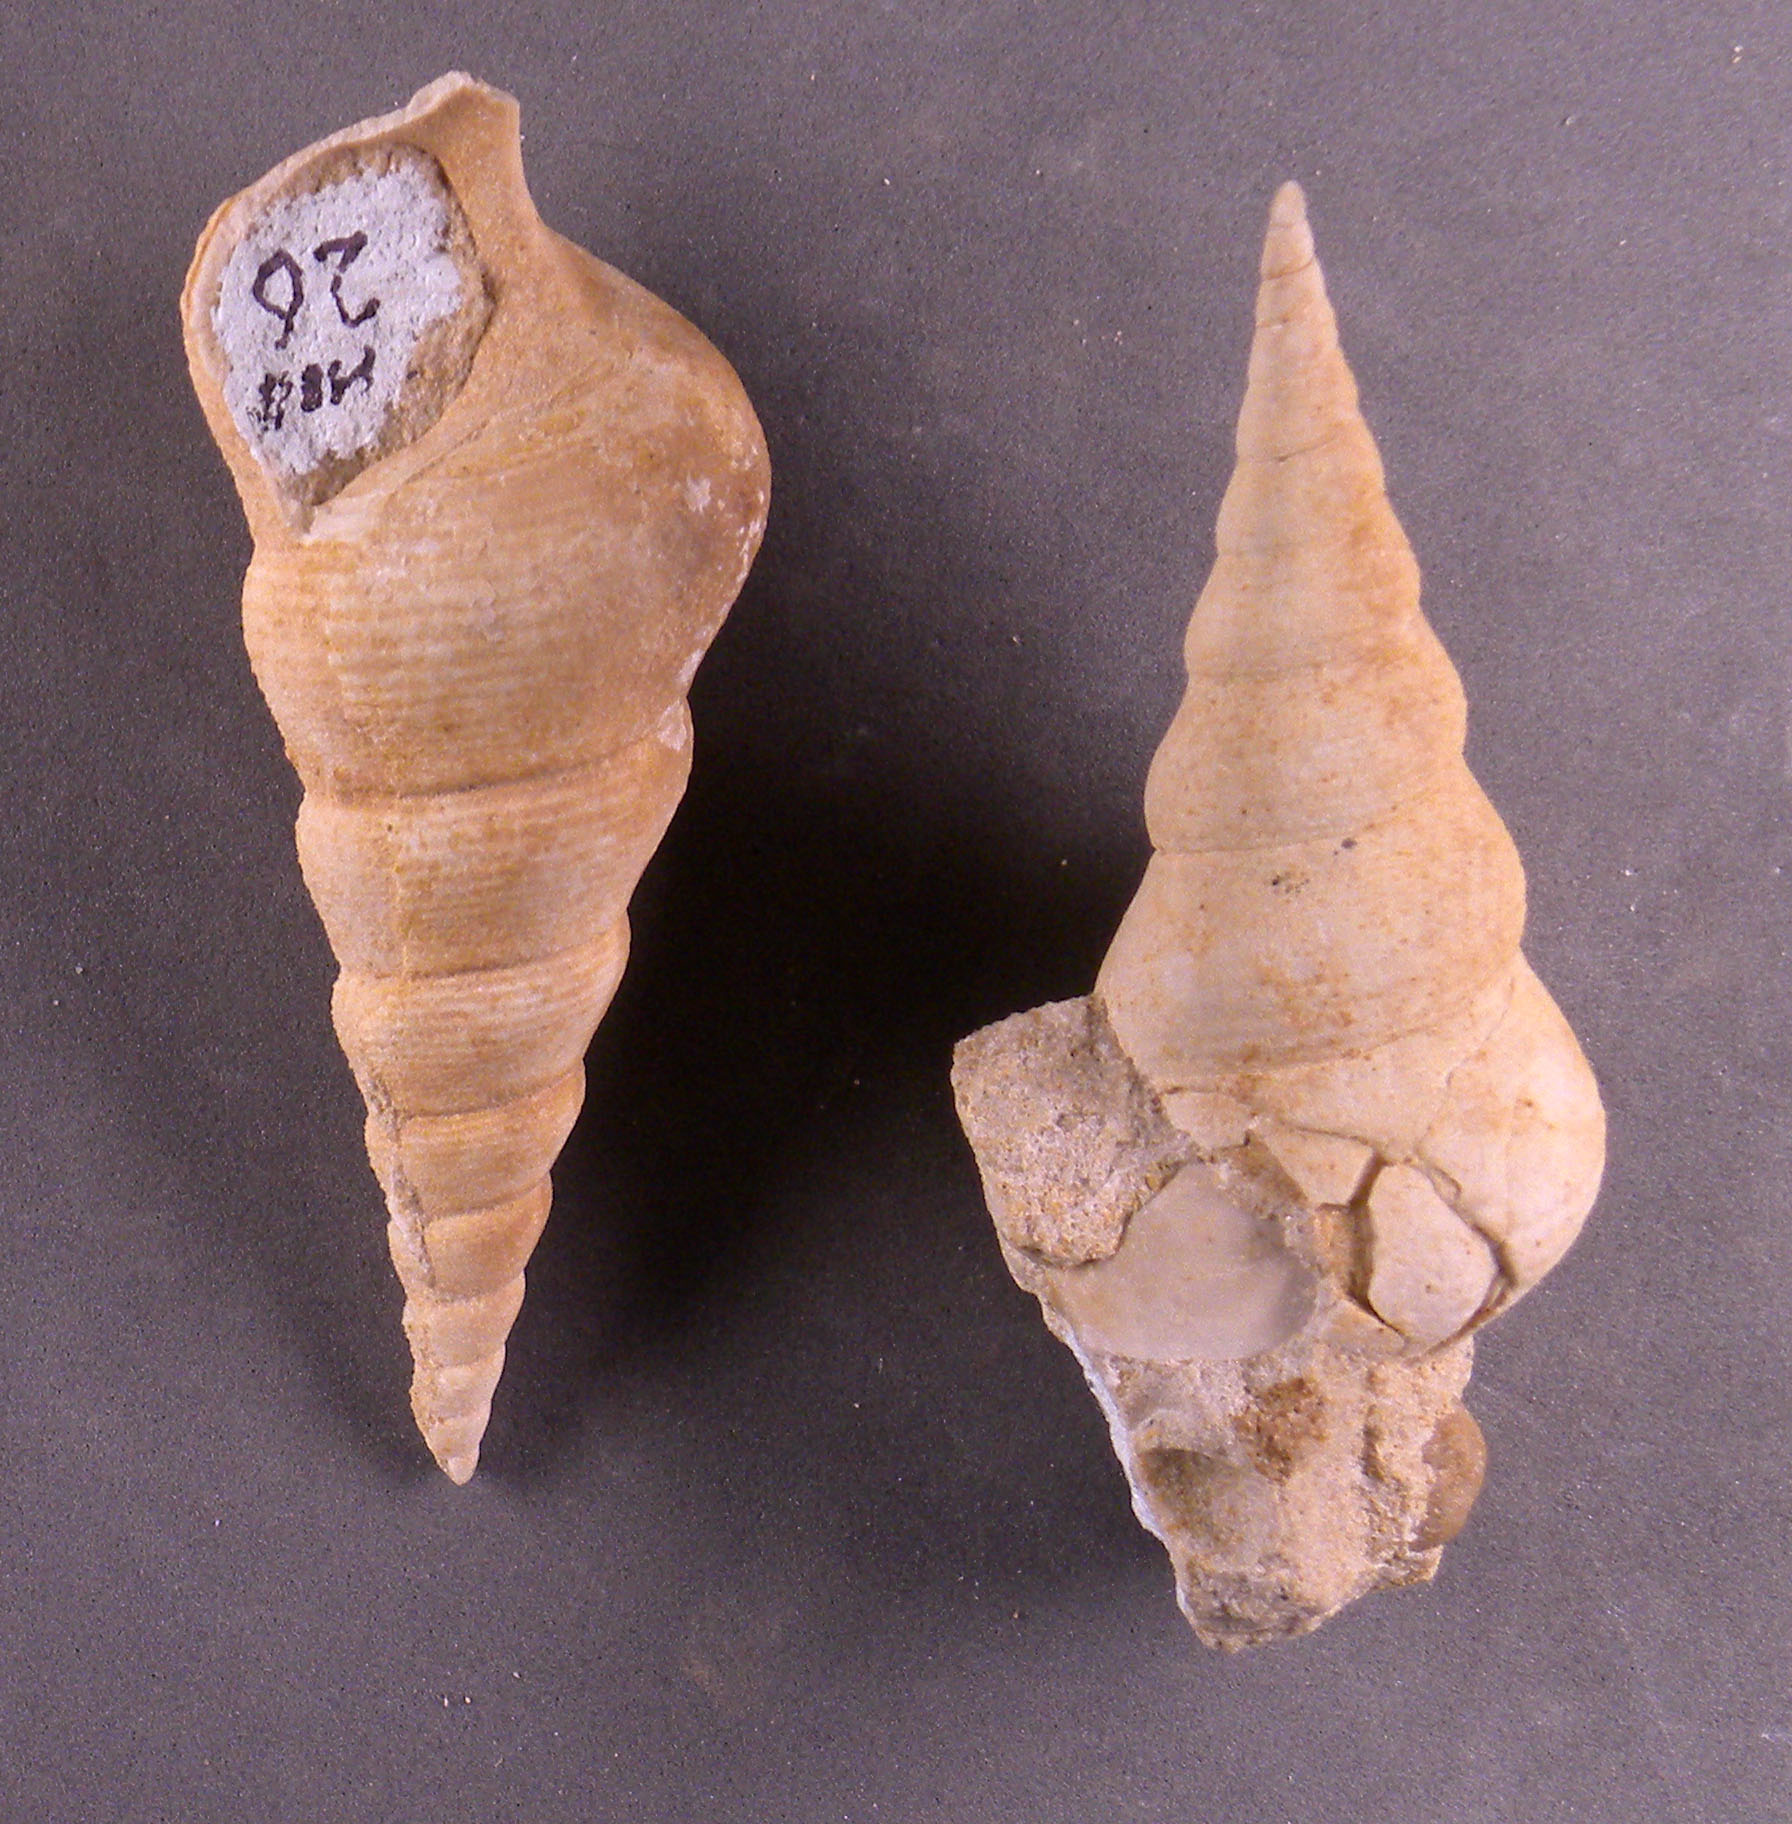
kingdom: Animalia
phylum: Mollusca
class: Gastropoda
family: Pseudomelaniidae
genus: Bourgetia
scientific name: Bourgetia Turritella deshayesea
